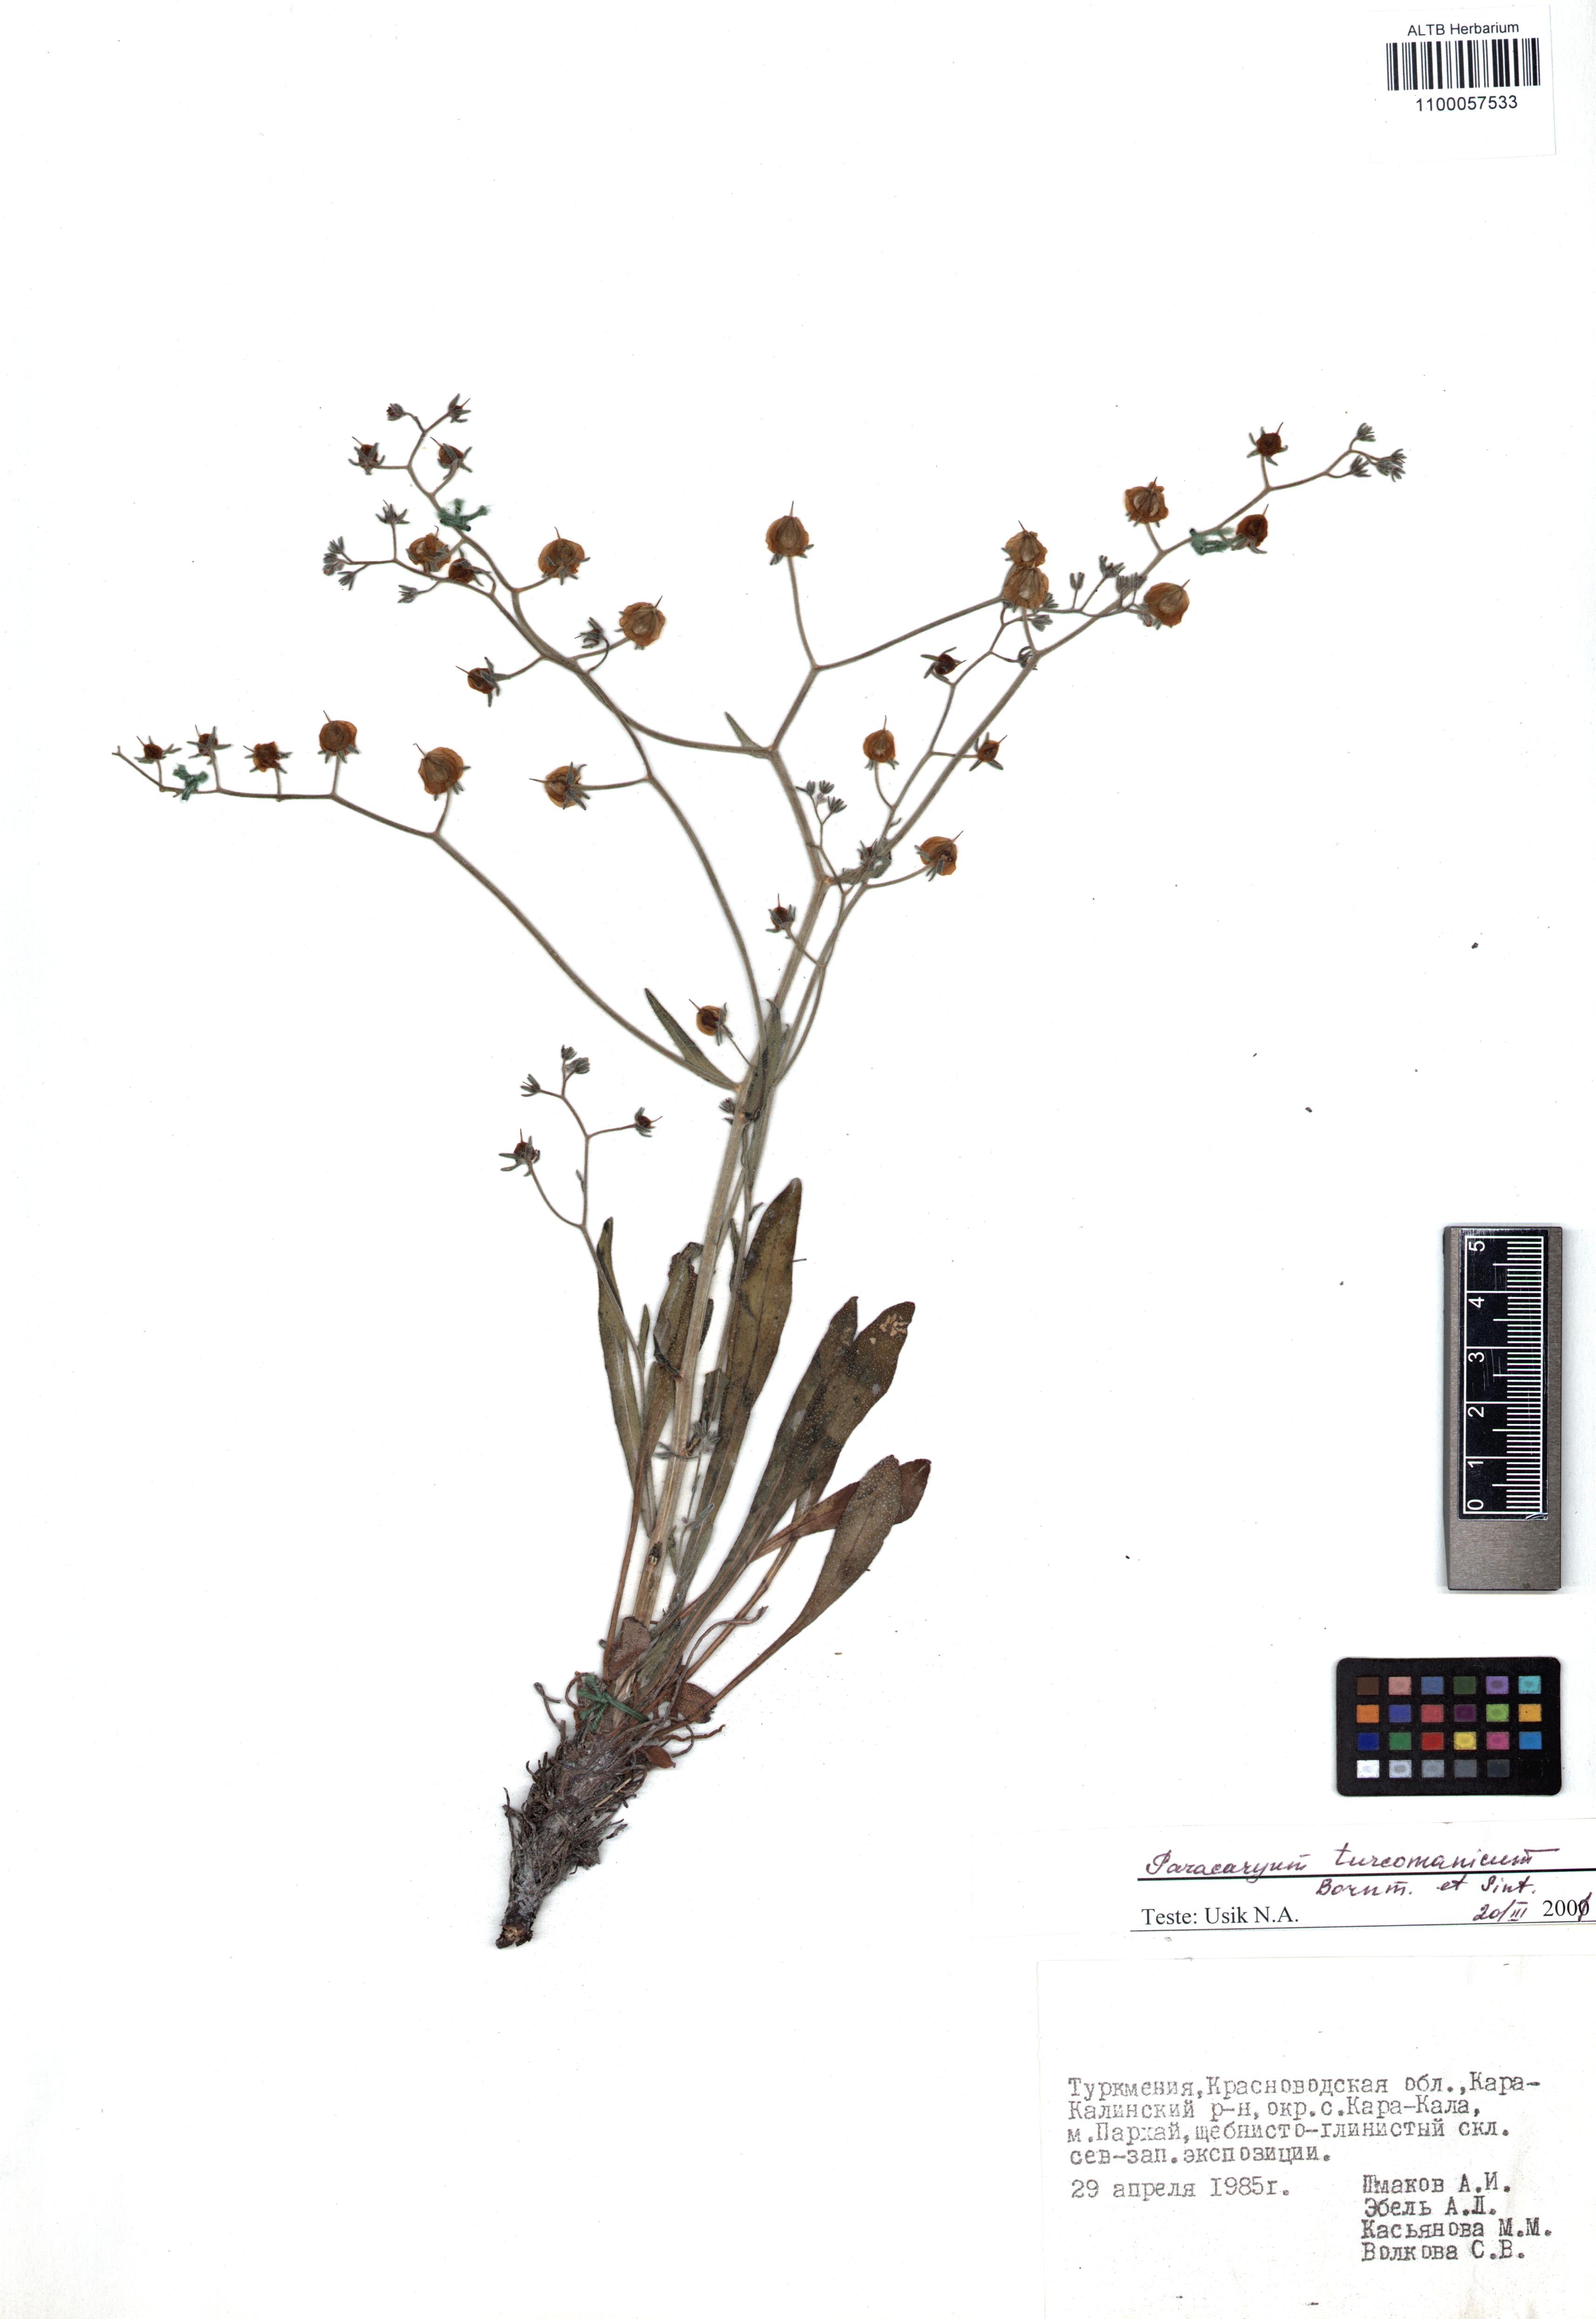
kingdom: Plantae
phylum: Tracheophyta
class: Magnoliopsida
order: Boraginales
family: Boraginaceae
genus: Paracaryum
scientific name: Paracaryum turcomanicum
